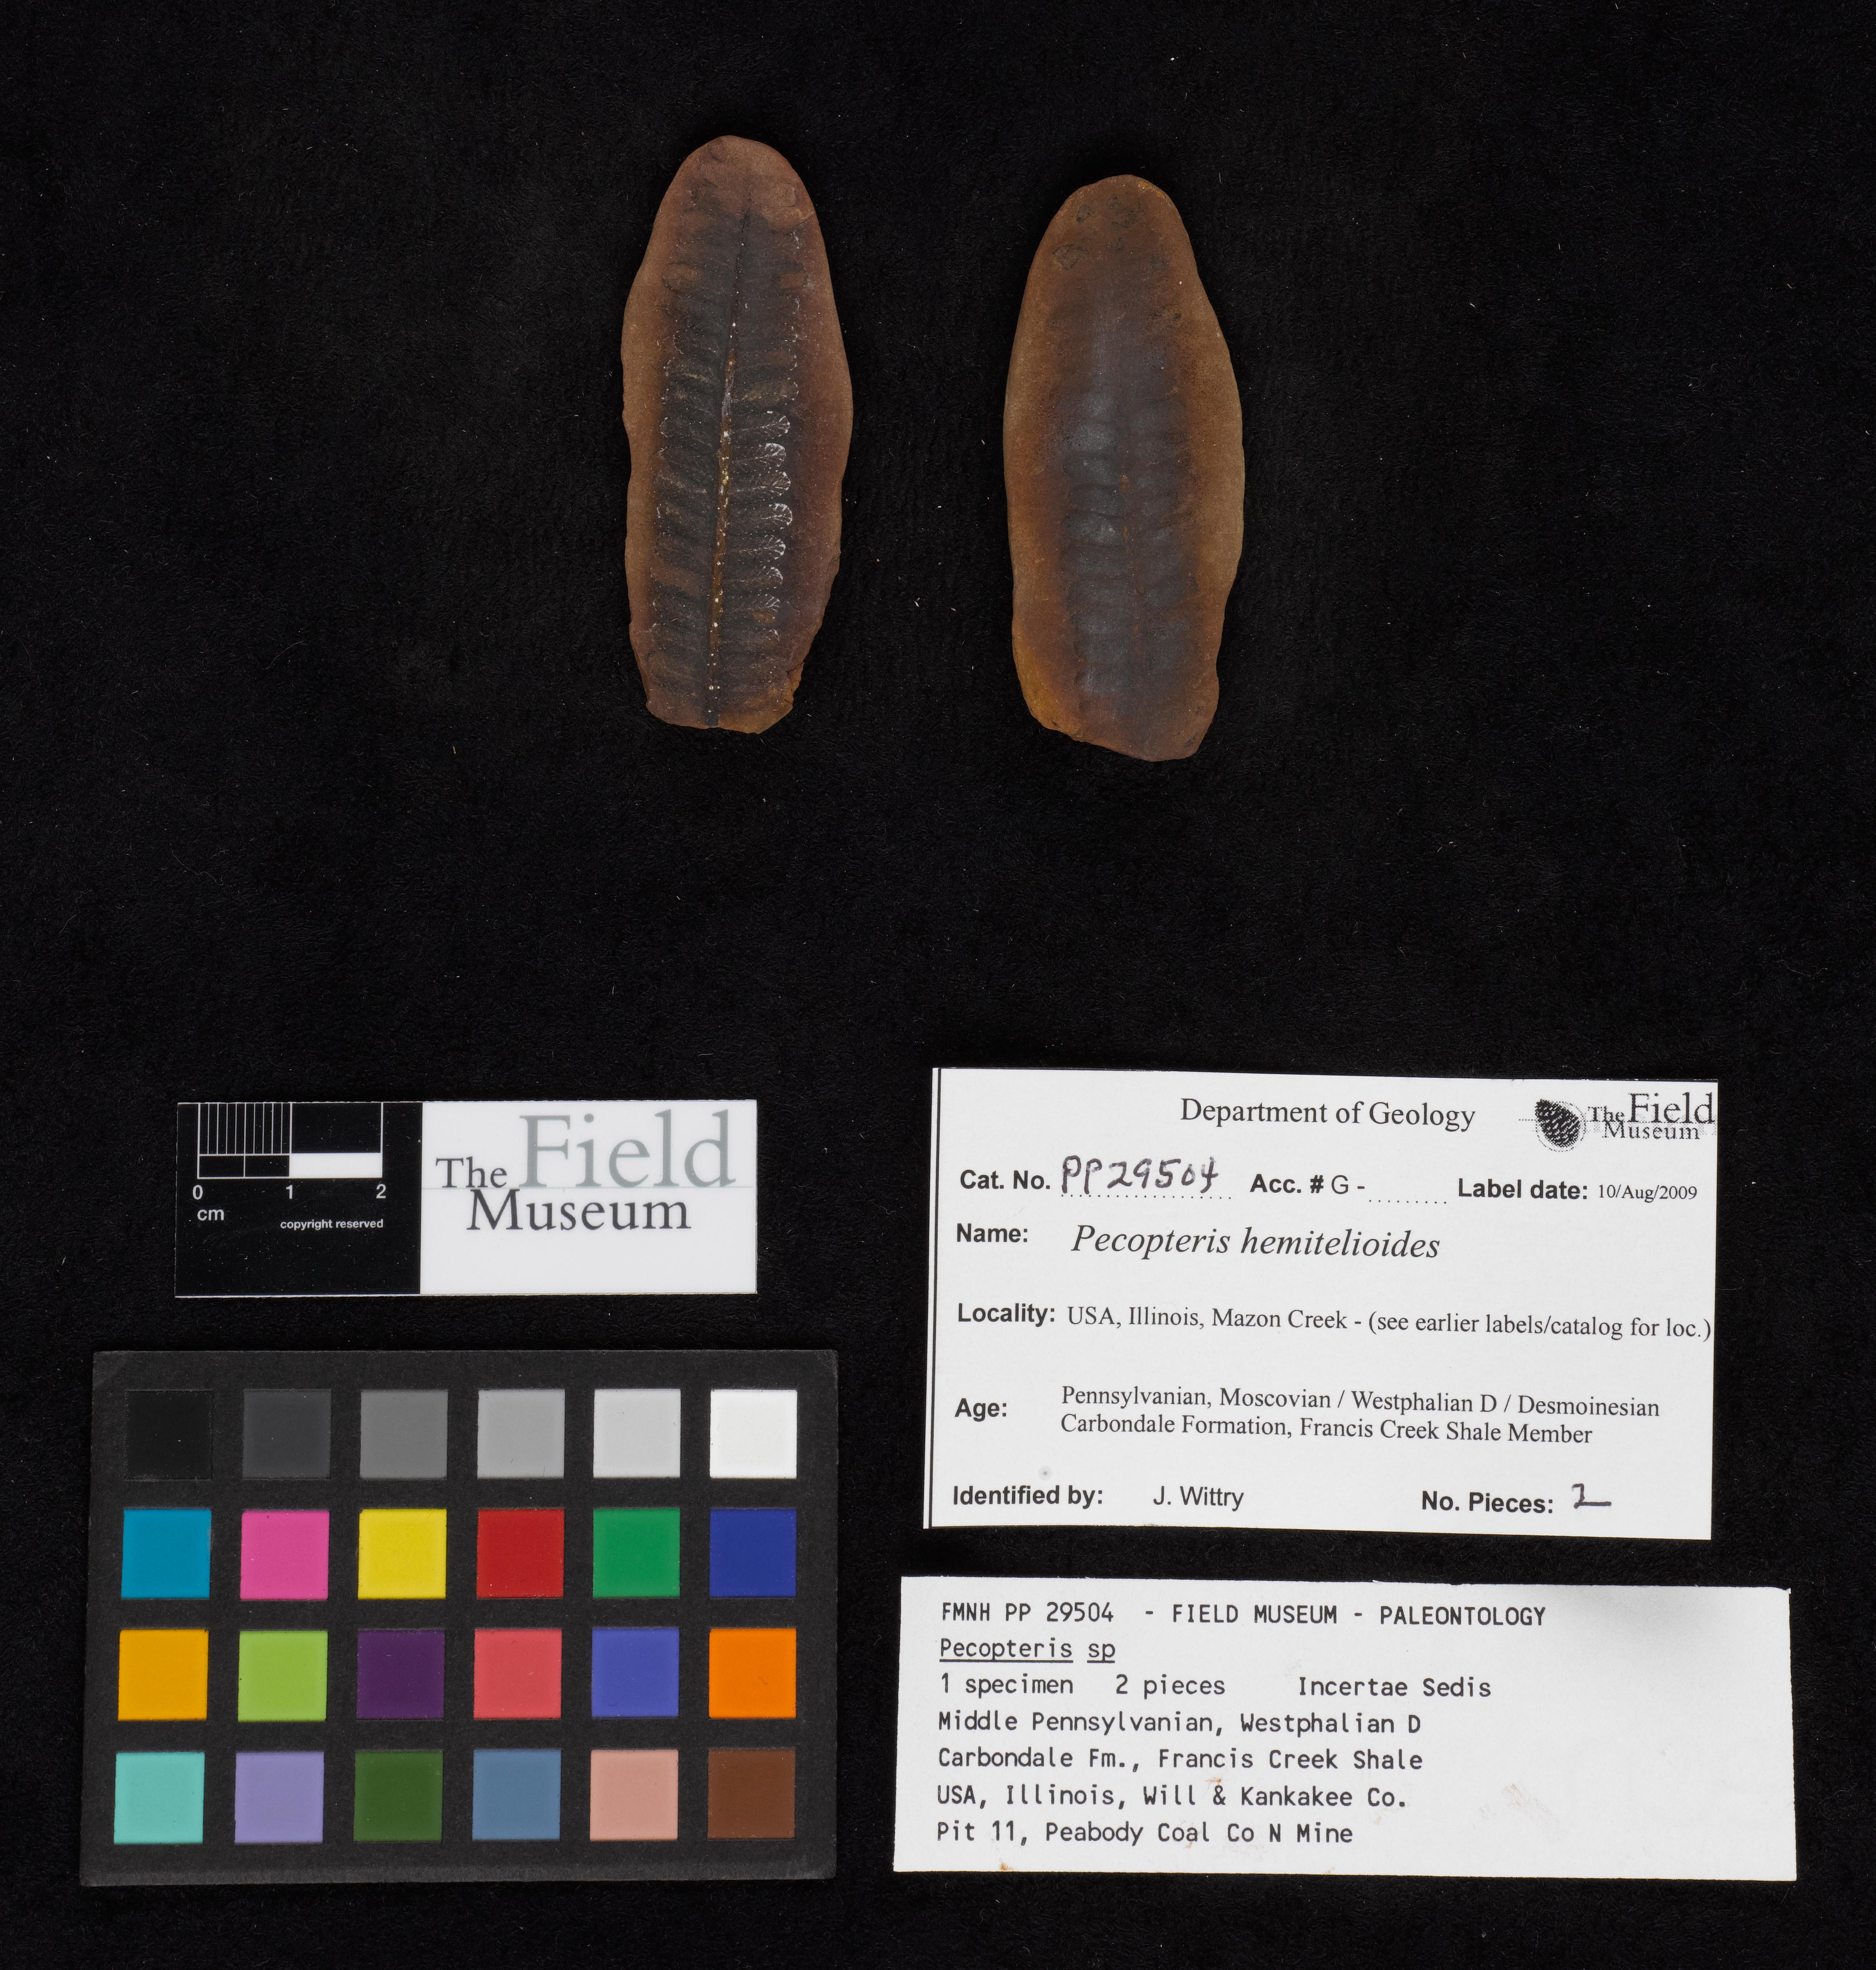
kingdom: Plantae
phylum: Tracheophyta
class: Polypodiopsida
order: Marattiales
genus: Cyathocarpus
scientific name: Cyathocarpus
